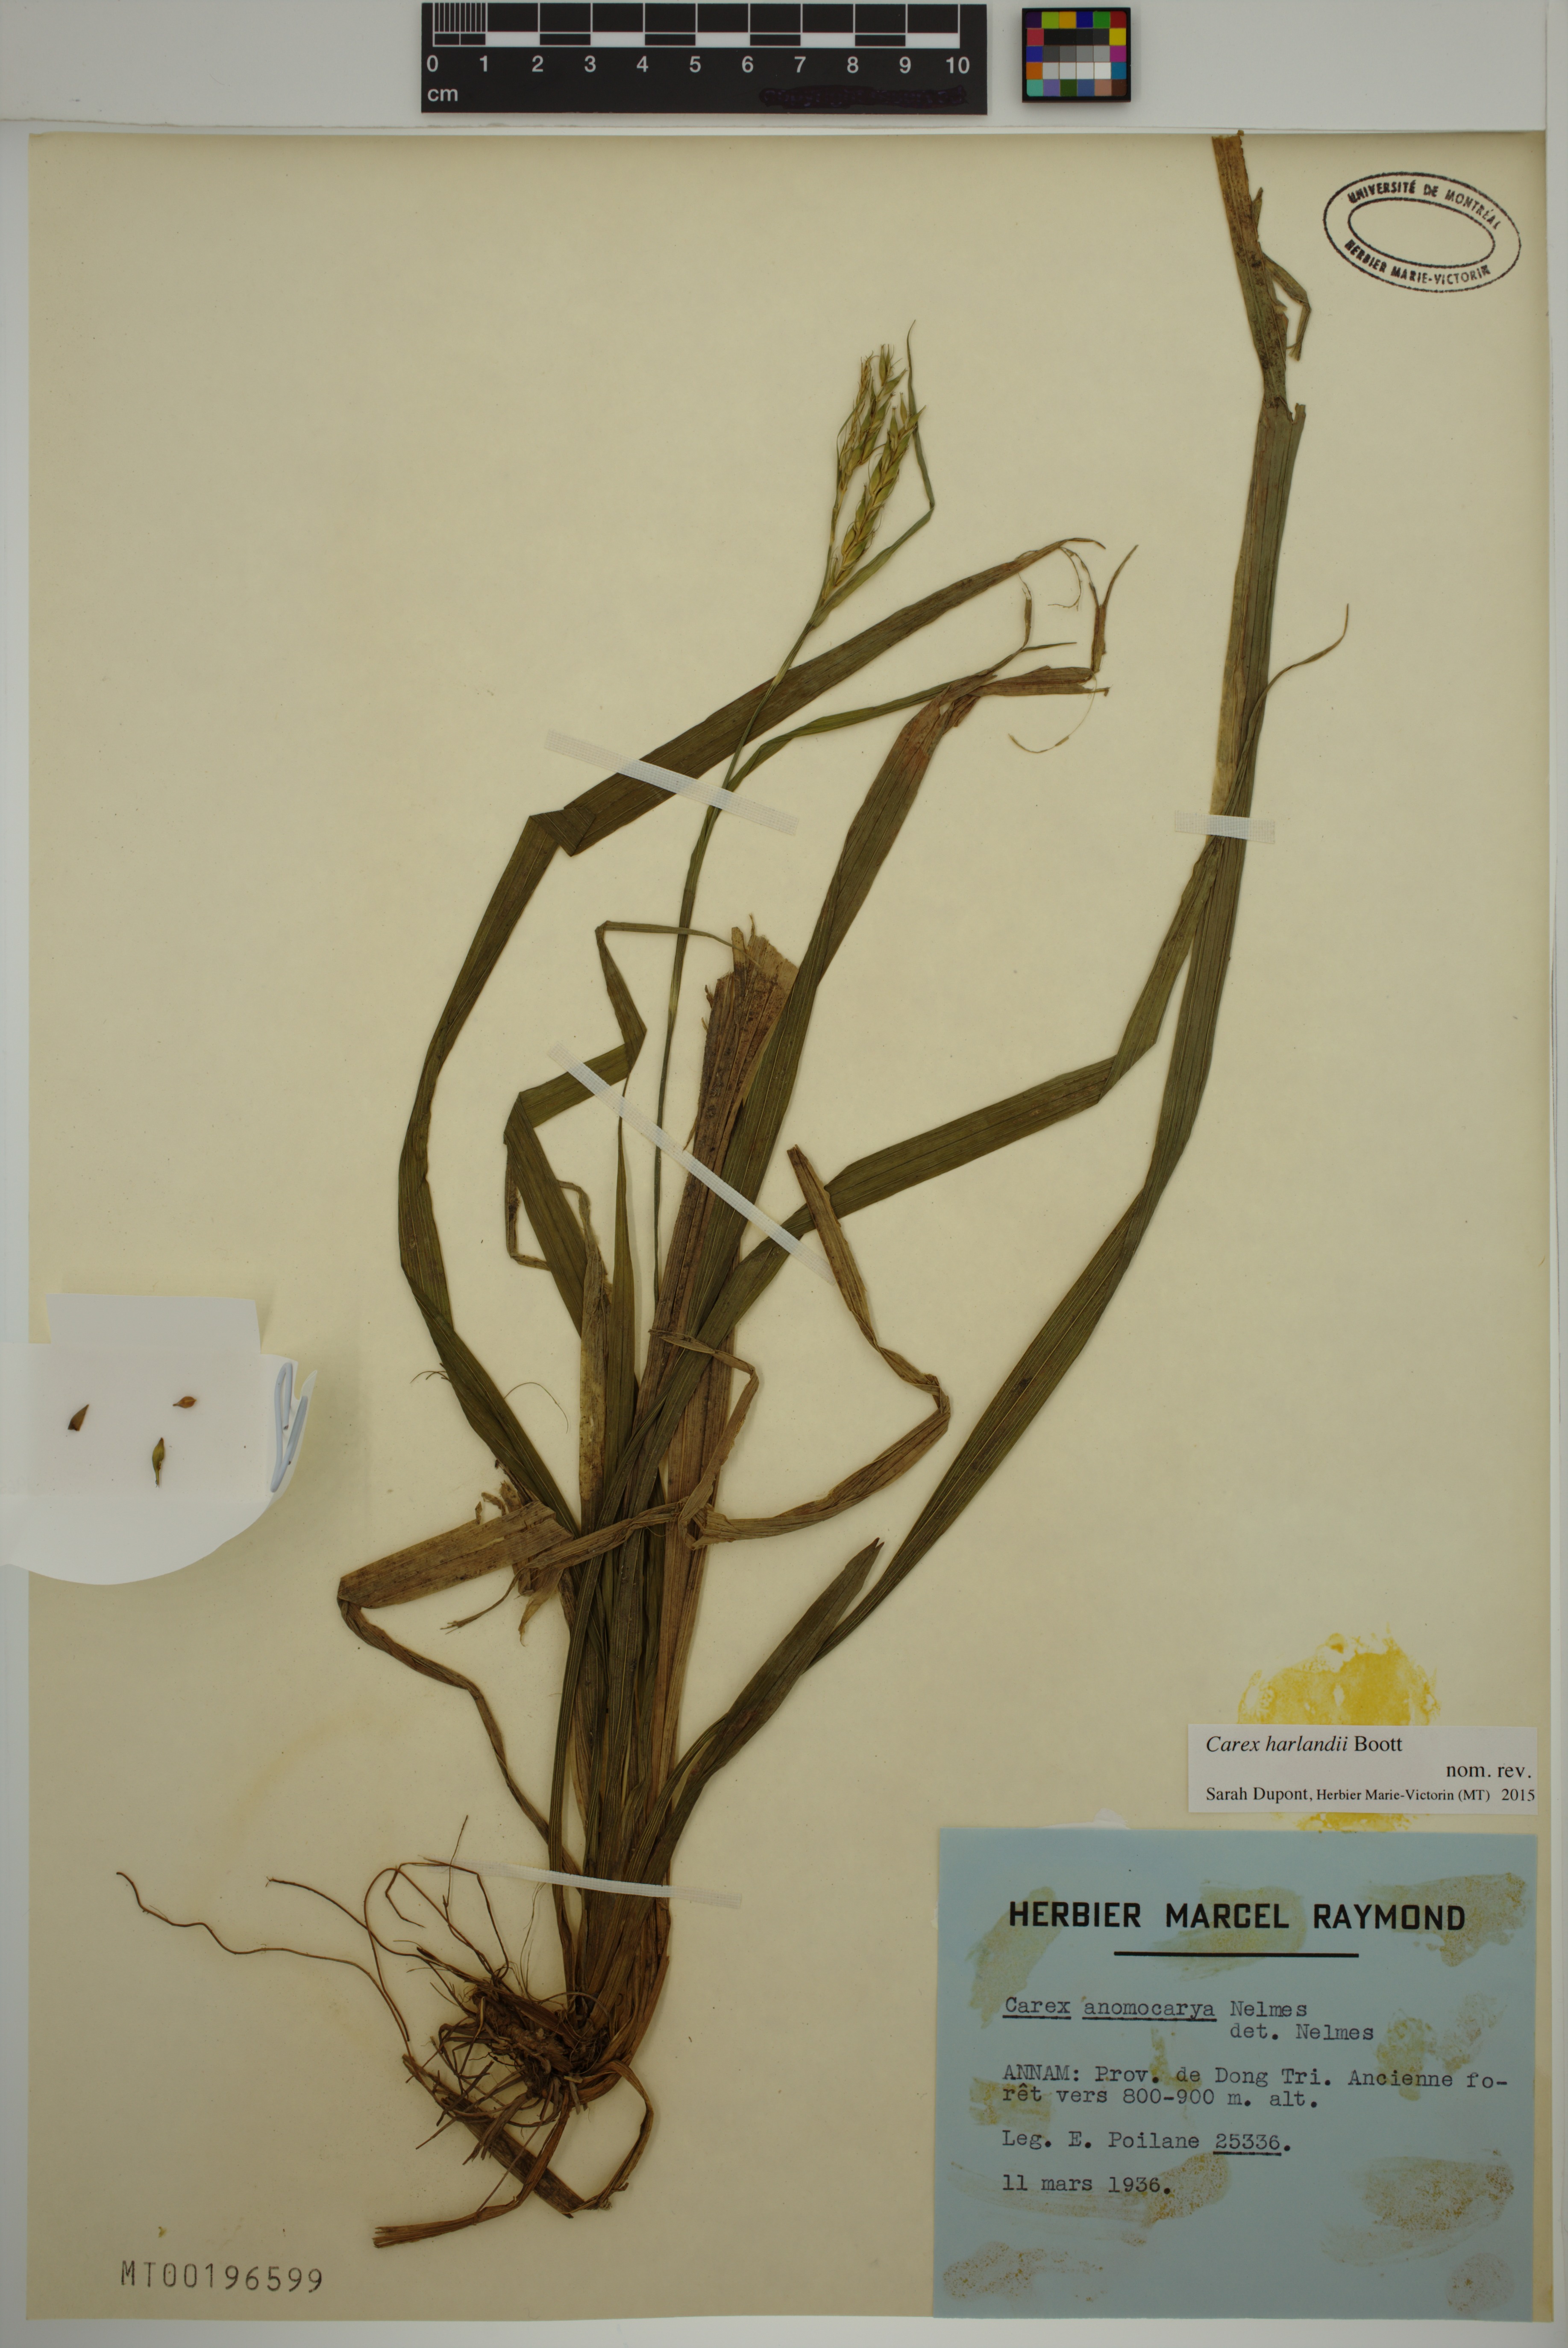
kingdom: Plantae
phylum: Tracheophyta
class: Liliopsida
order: Poales
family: Cyperaceae
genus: Carex
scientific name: Carex harlandii
